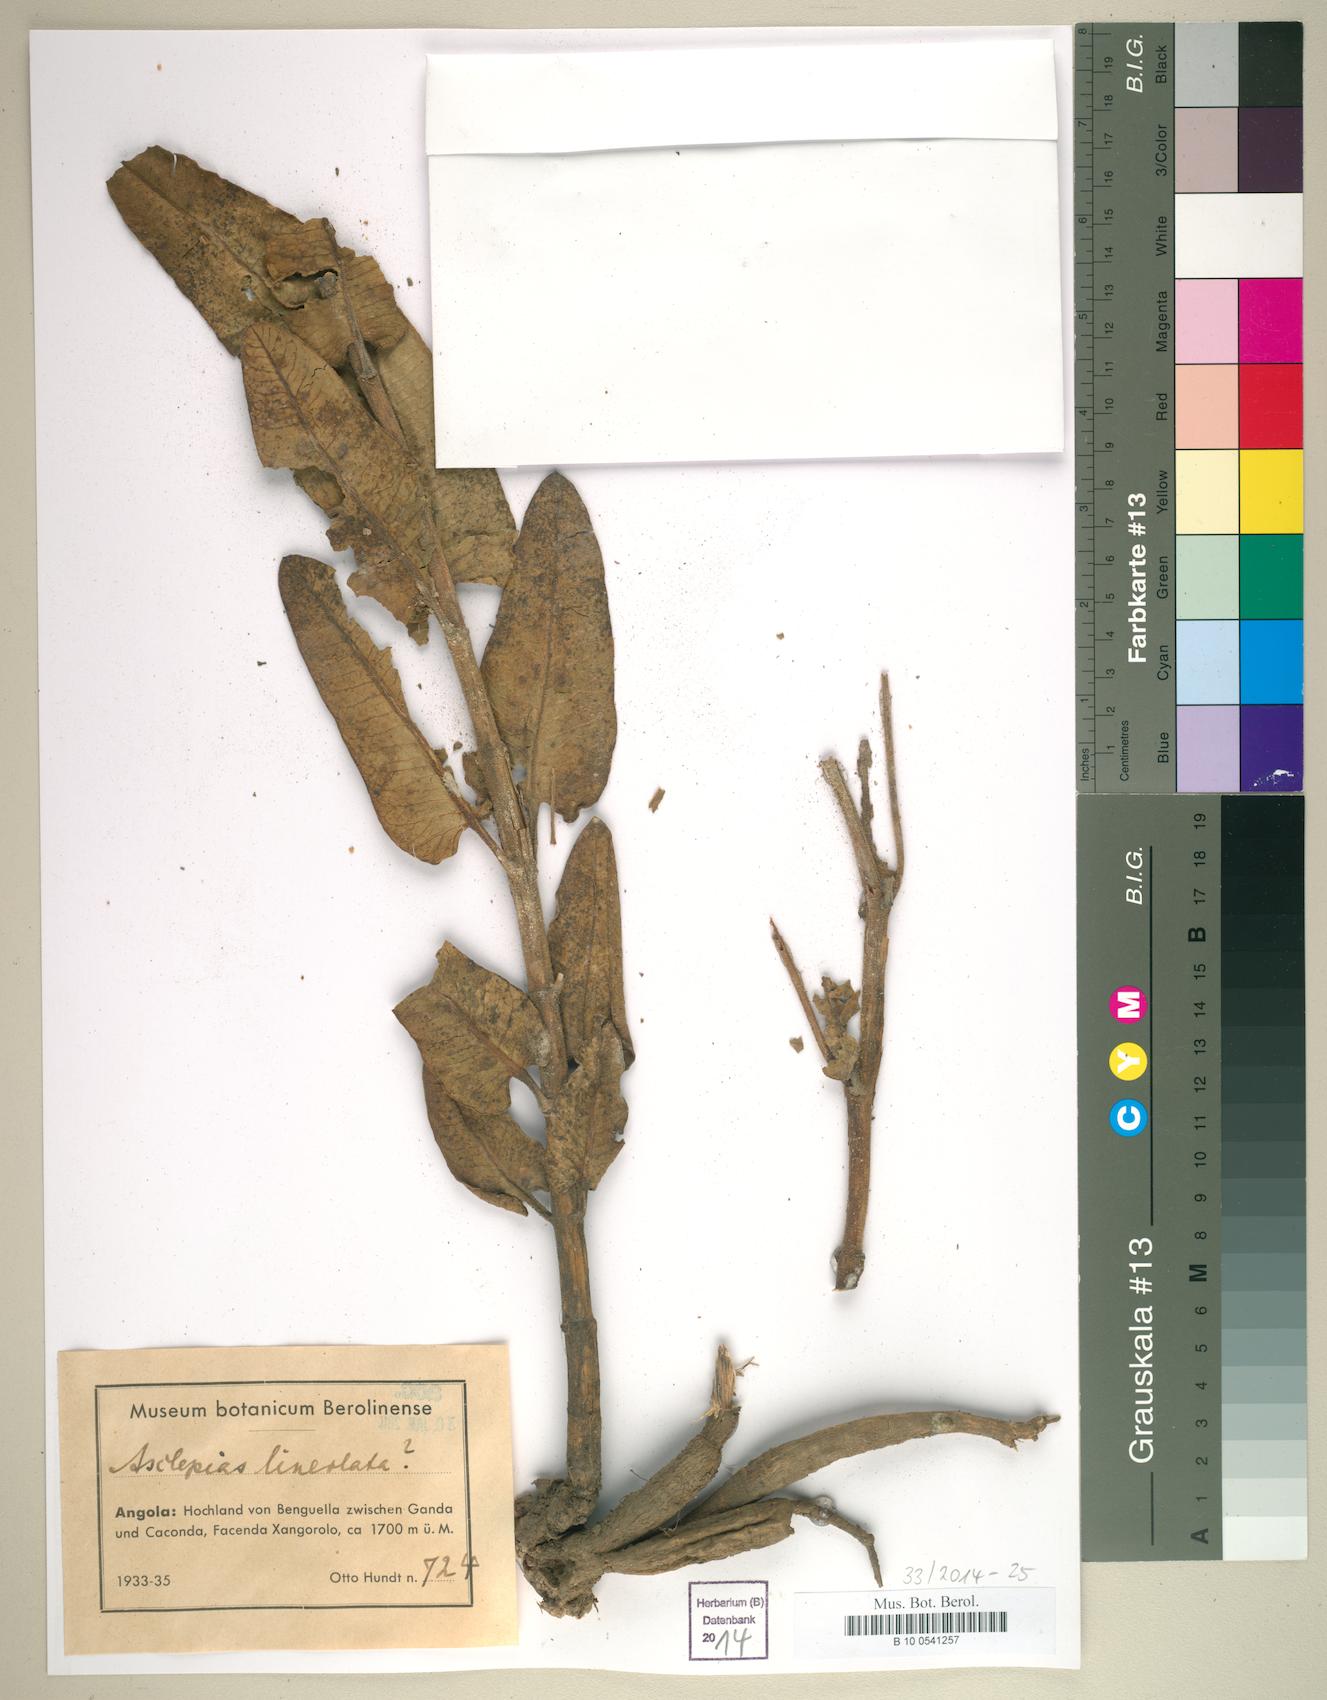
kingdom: Plantae
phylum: Tracheophyta
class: Magnoliopsida
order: Gentianales
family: Apocynaceae
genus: Pachycarpus
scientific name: Pachycarpus lineolatus
